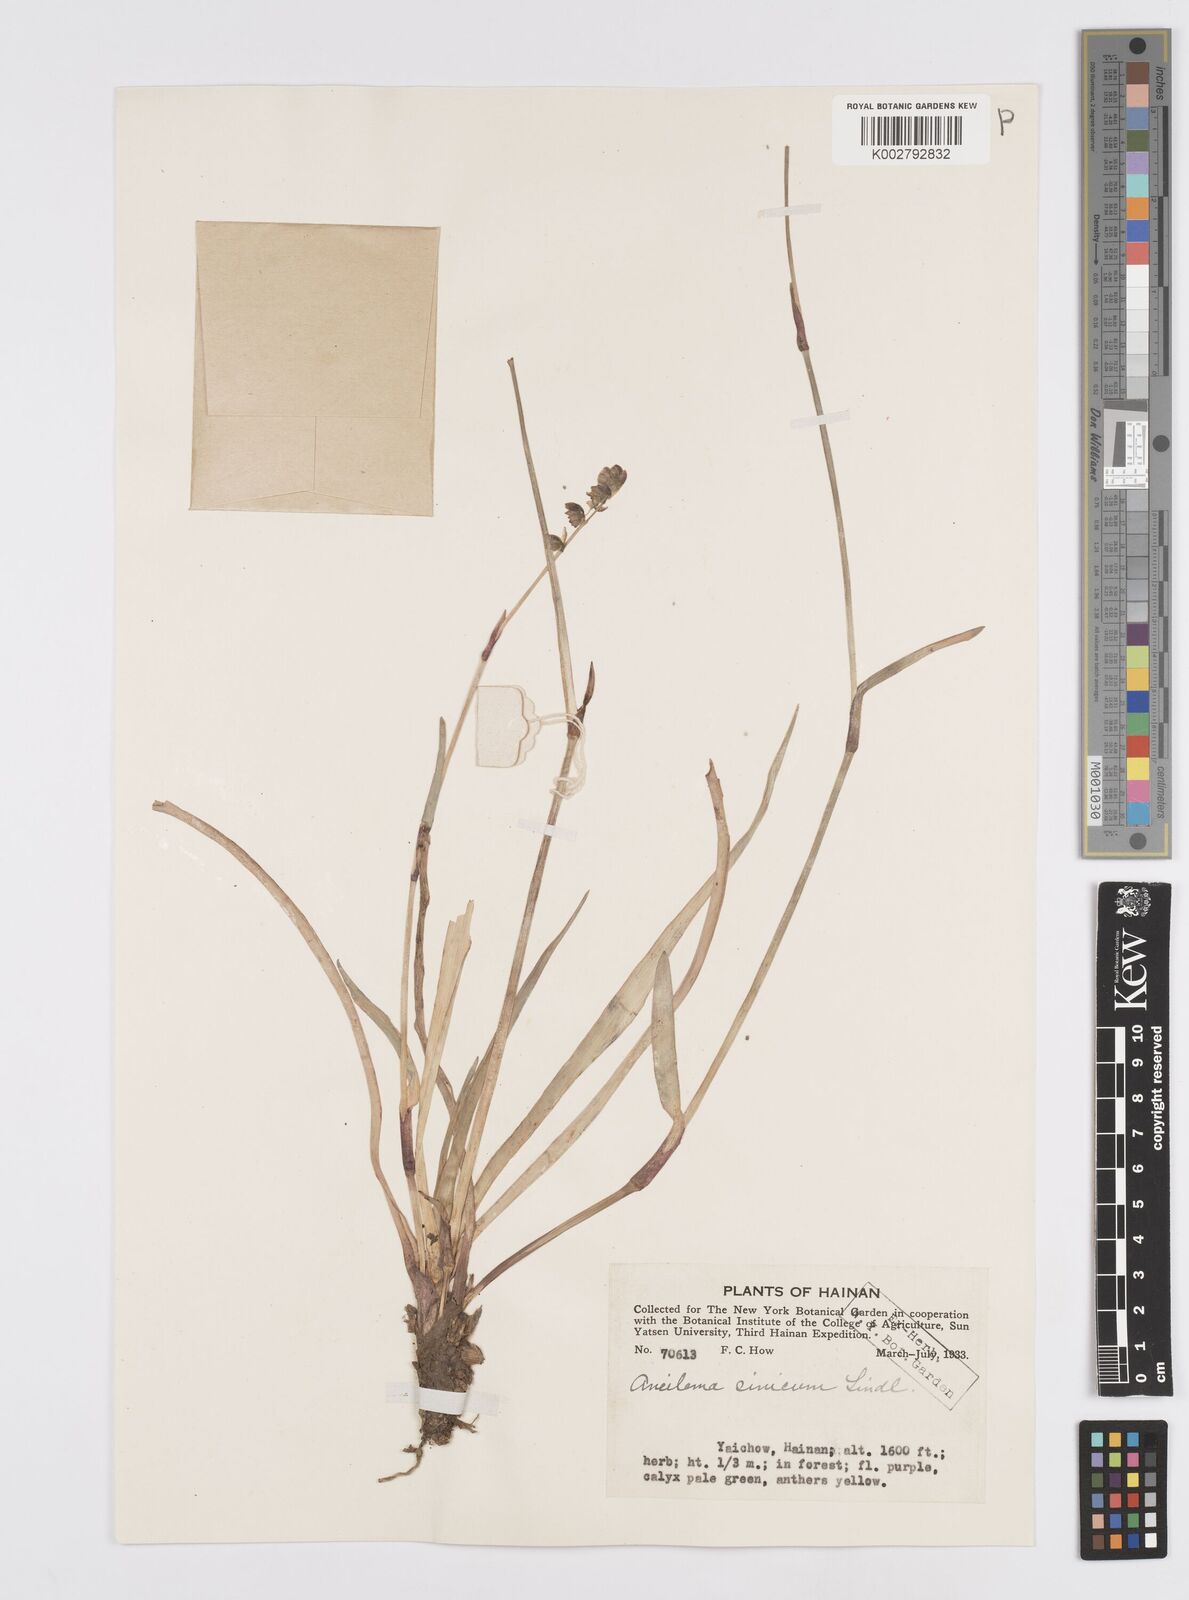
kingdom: Plantae
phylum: Tracheophyta
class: Liliopsida
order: Commelinales
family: Commelinaceae
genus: Murdannia
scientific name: Murdannia
